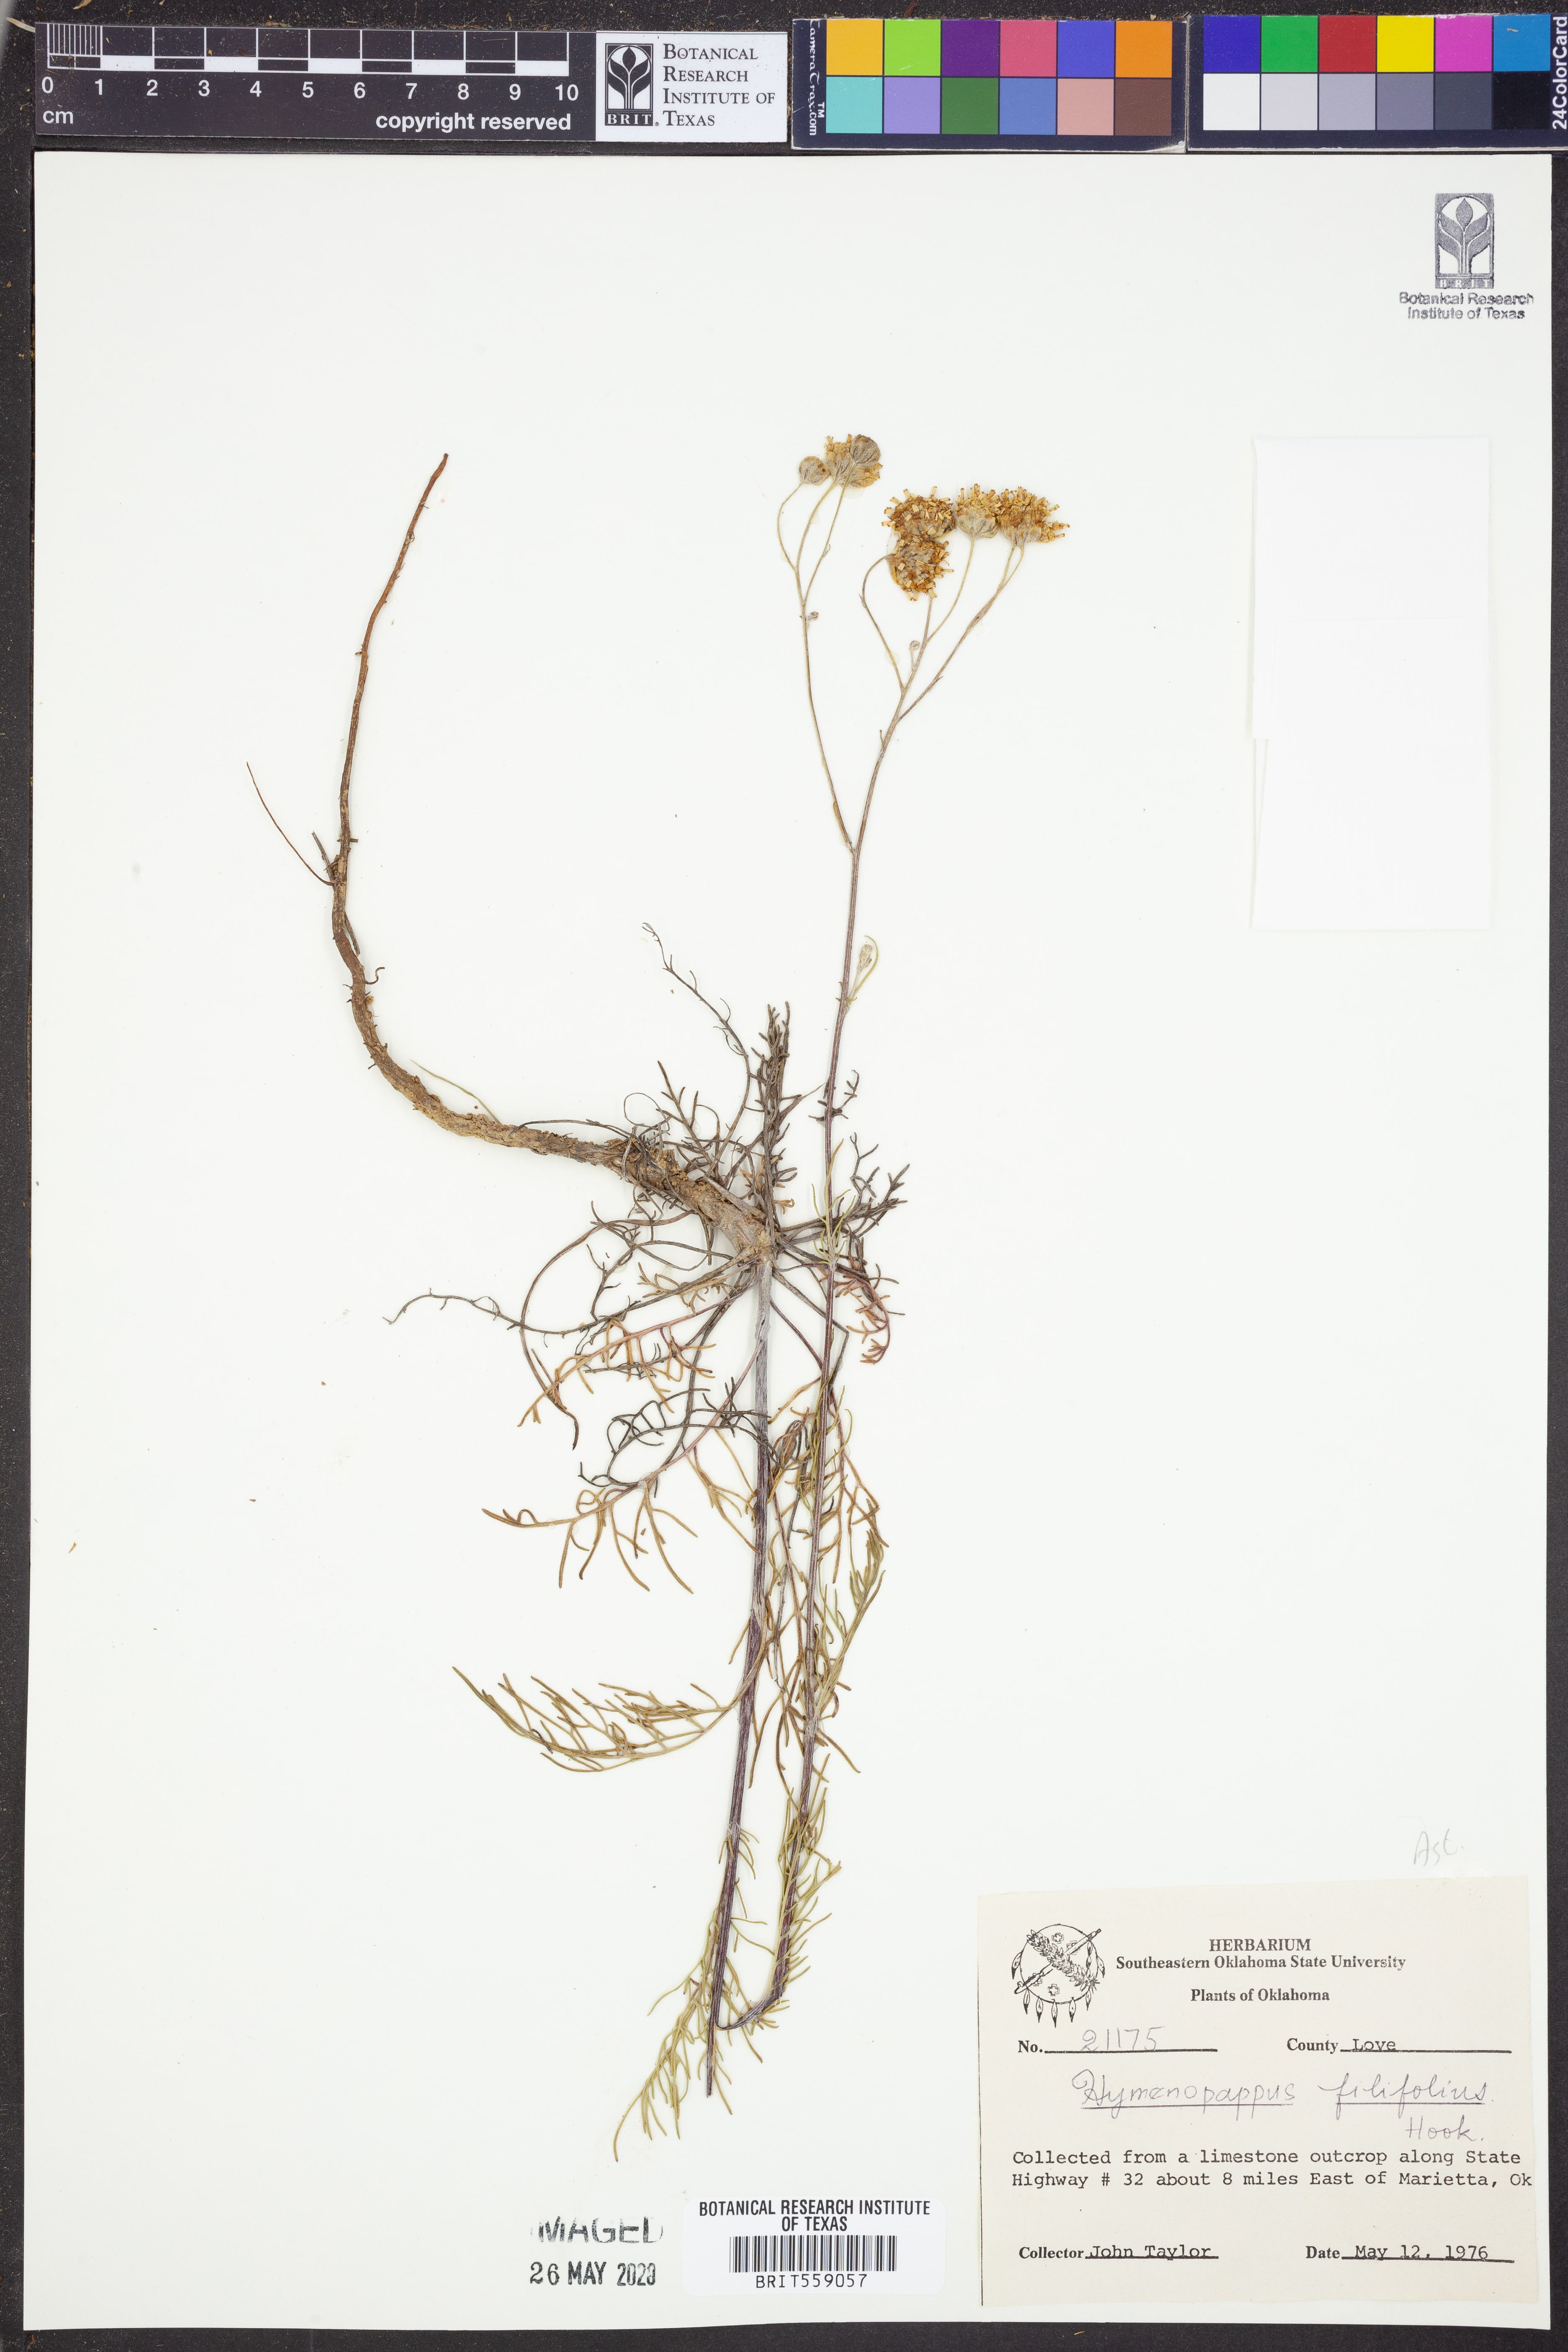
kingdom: Plantae
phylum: Tracheophyta
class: Magnoliopsida
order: Asterales
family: Asteraceae
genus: Hymenopappus
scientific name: Hymenopappus filifolius
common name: Columbia cutleaf
